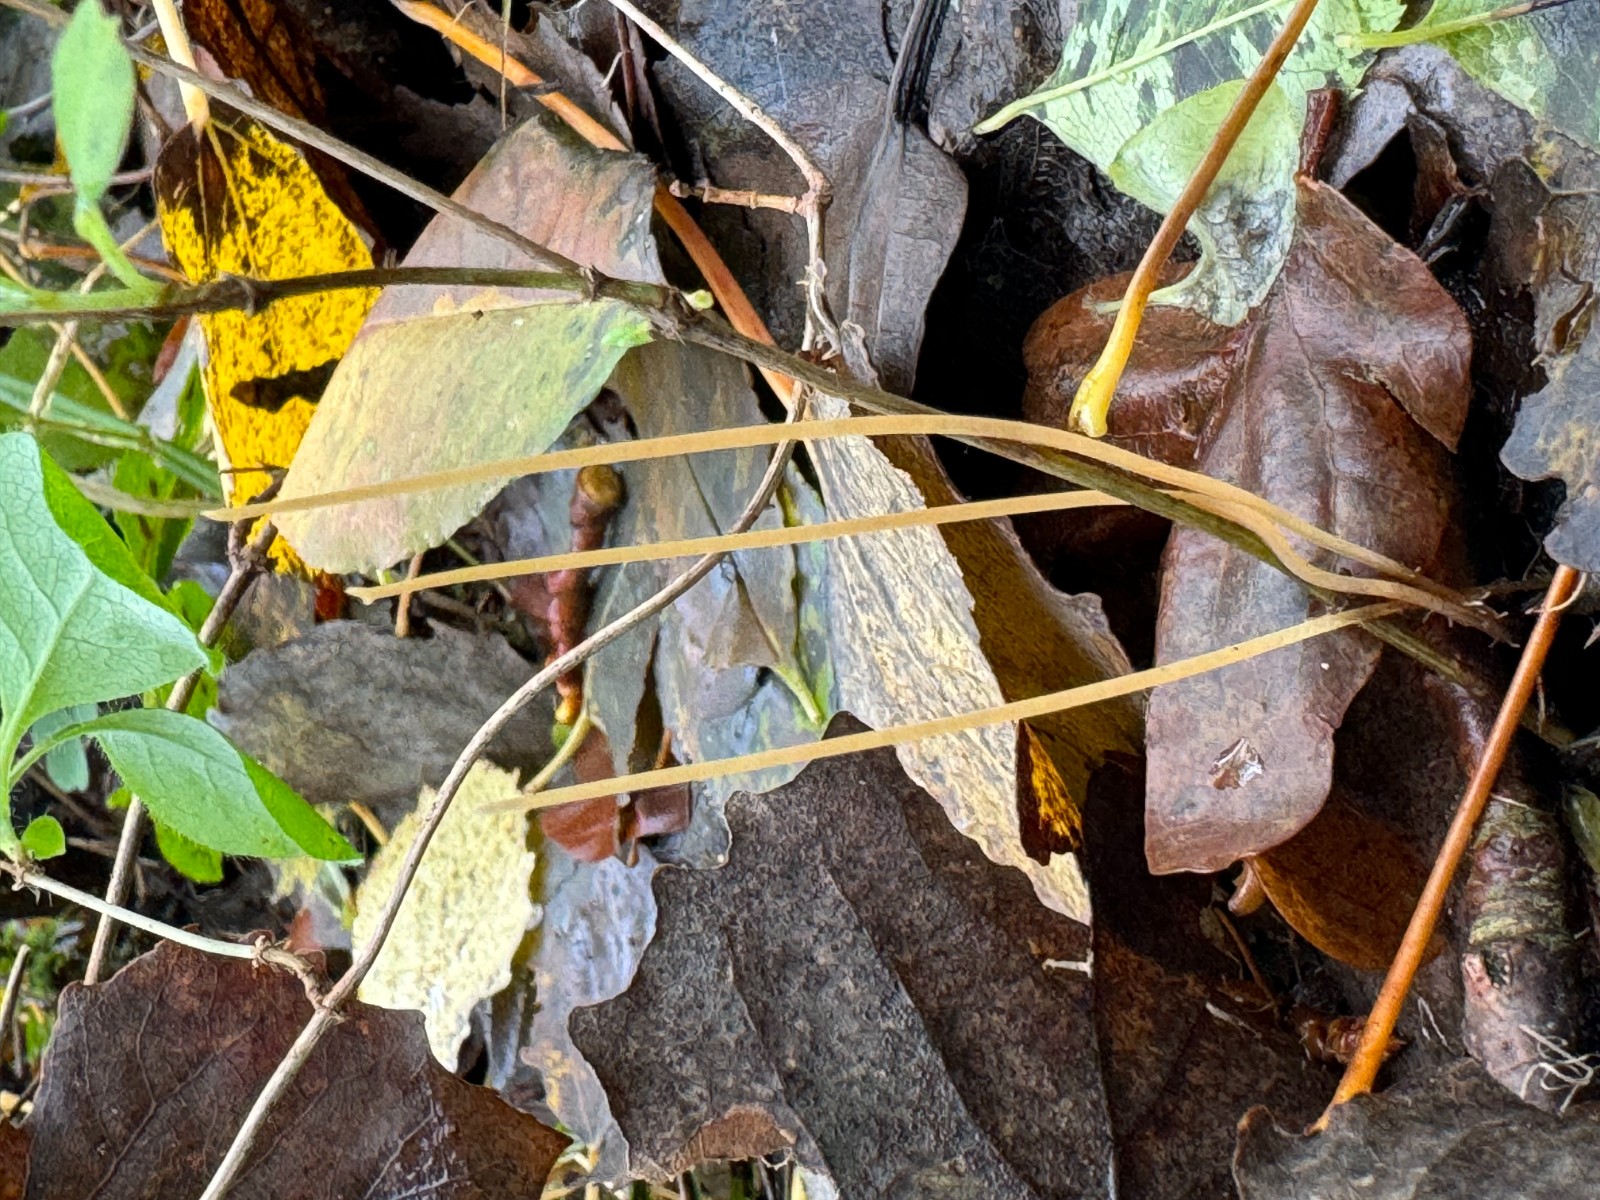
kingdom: Fungi
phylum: Basidiomycota
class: Agaricomycetes
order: Agaricales
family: Typhulaceae
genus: Typhula
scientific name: Typhula juncea
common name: trådagtig rørkølle
